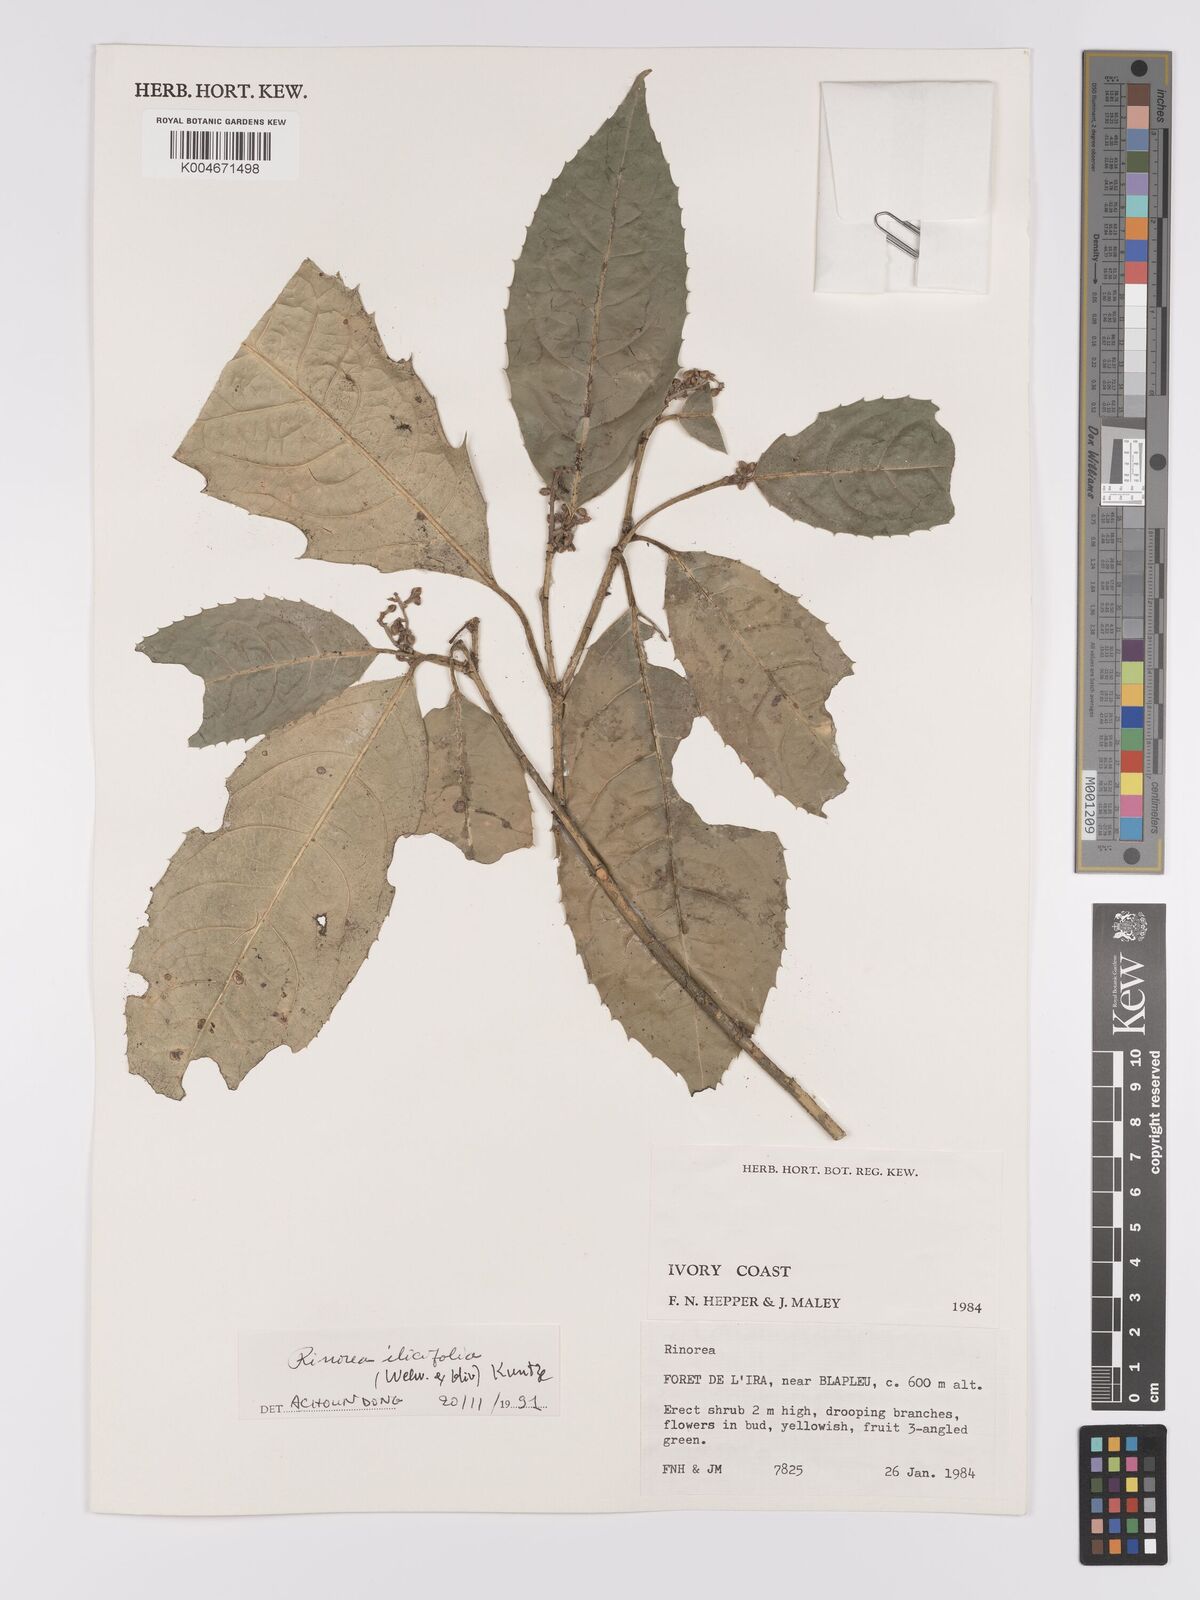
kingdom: Plantae
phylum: Tracheophyta
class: Magnoliopsida
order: Malpighiales
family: Violaceae
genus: Rinorea
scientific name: Rinorea ilicifolia
